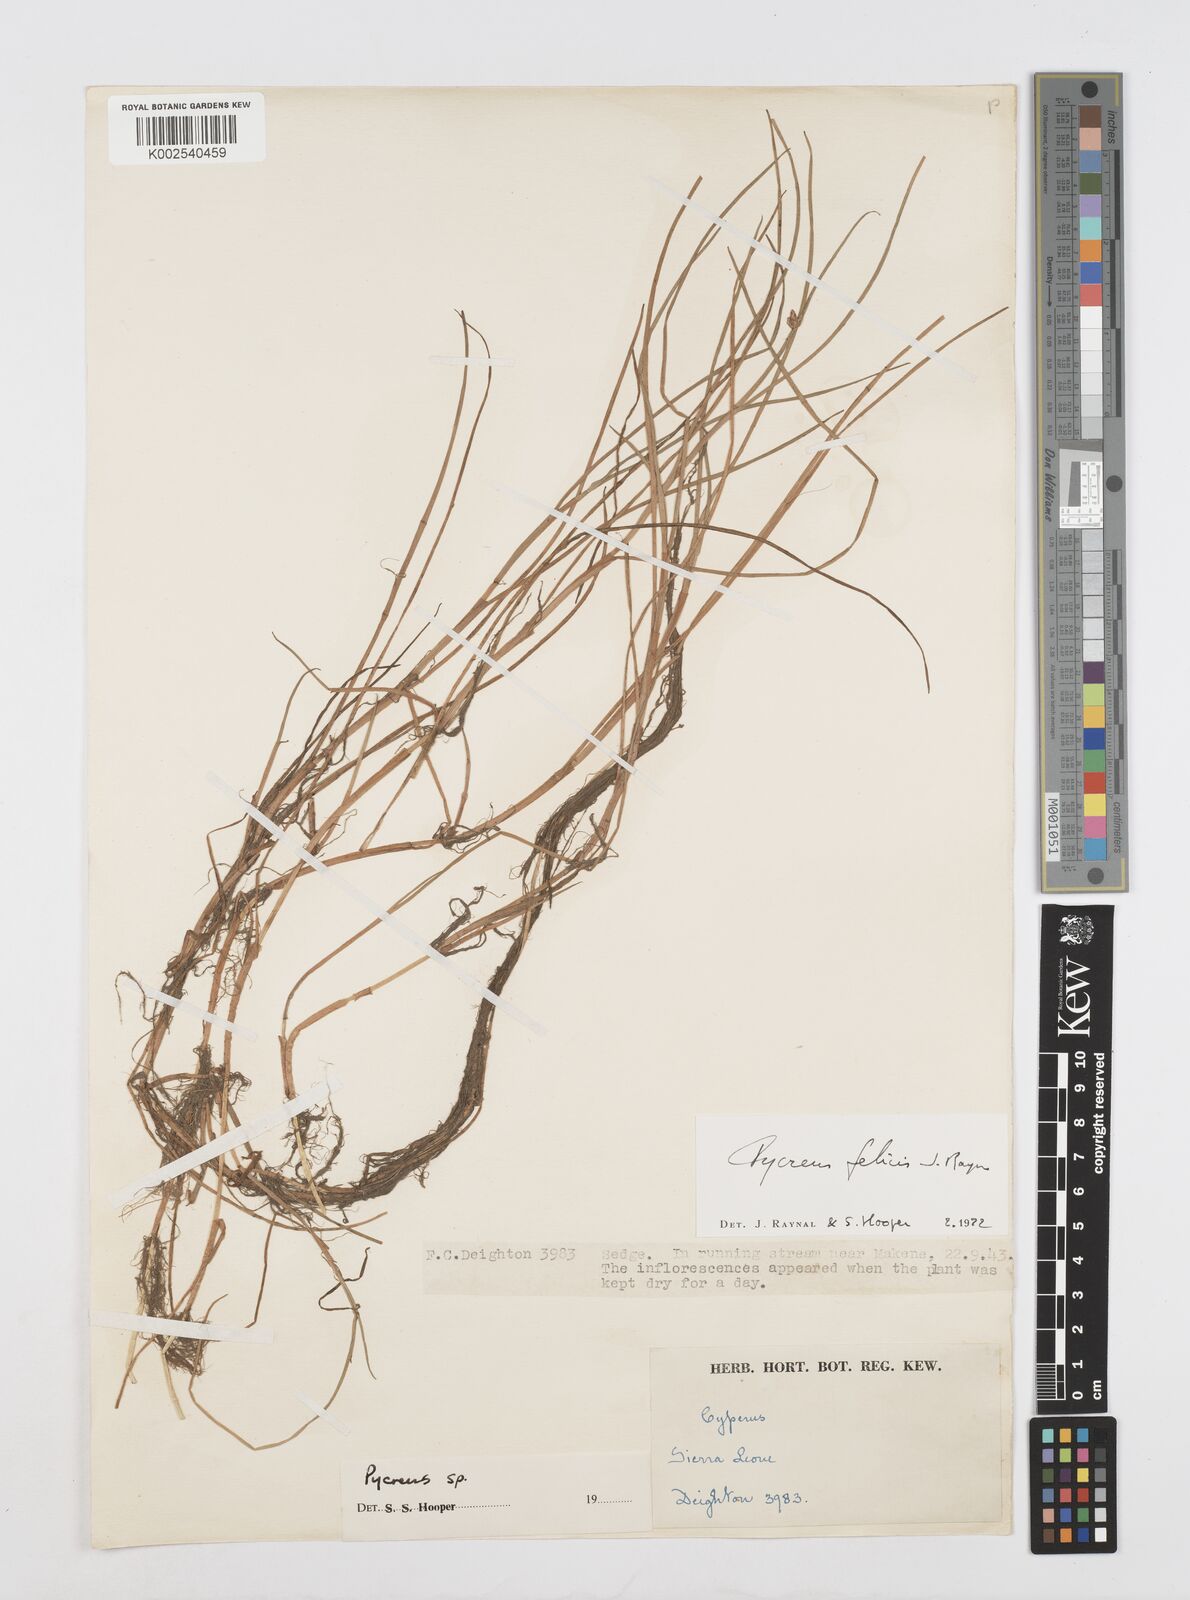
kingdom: Plantae
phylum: Tracheophyta
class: Liliopsida
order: Poales
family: Cyperaceae
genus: Cyperus
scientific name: Cyperus felicis
